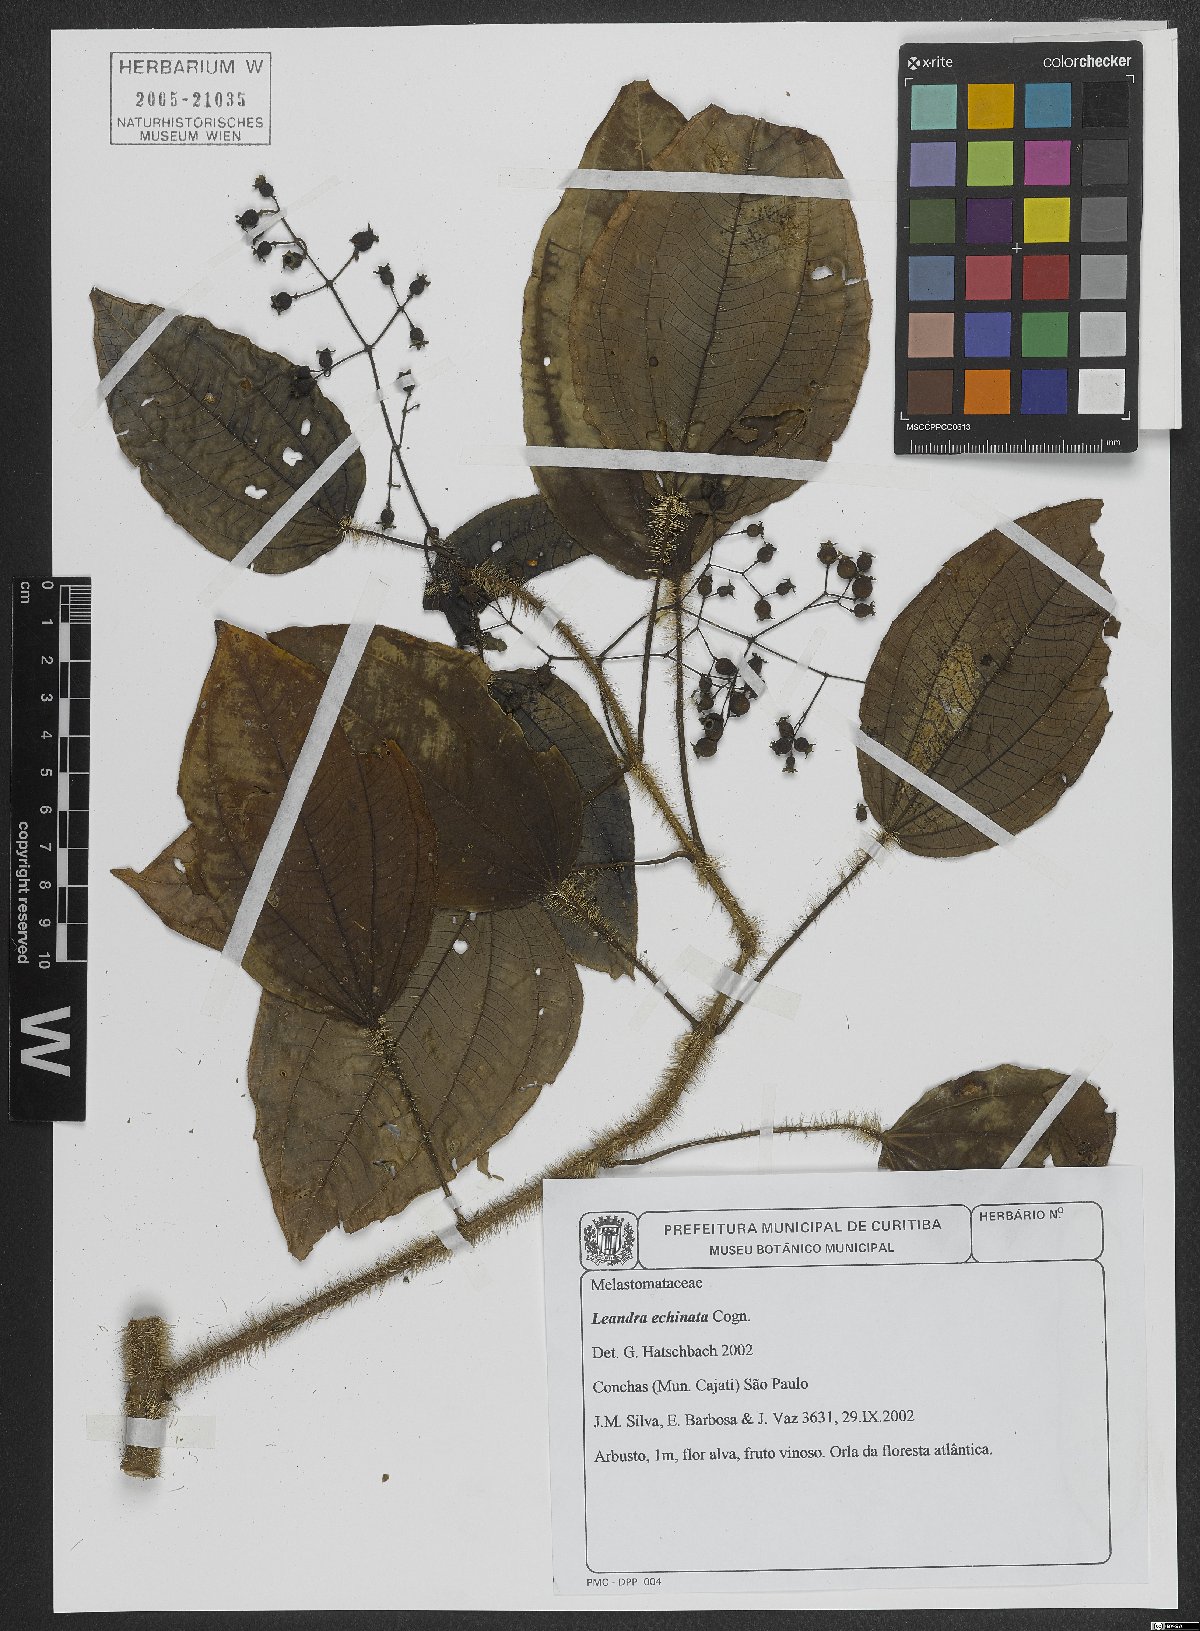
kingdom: Plantae
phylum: Tracheophyta
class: Magnoliopsida
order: Myrtales
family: Melastomataceae
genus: Miconia
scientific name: Miconia leaechinata
